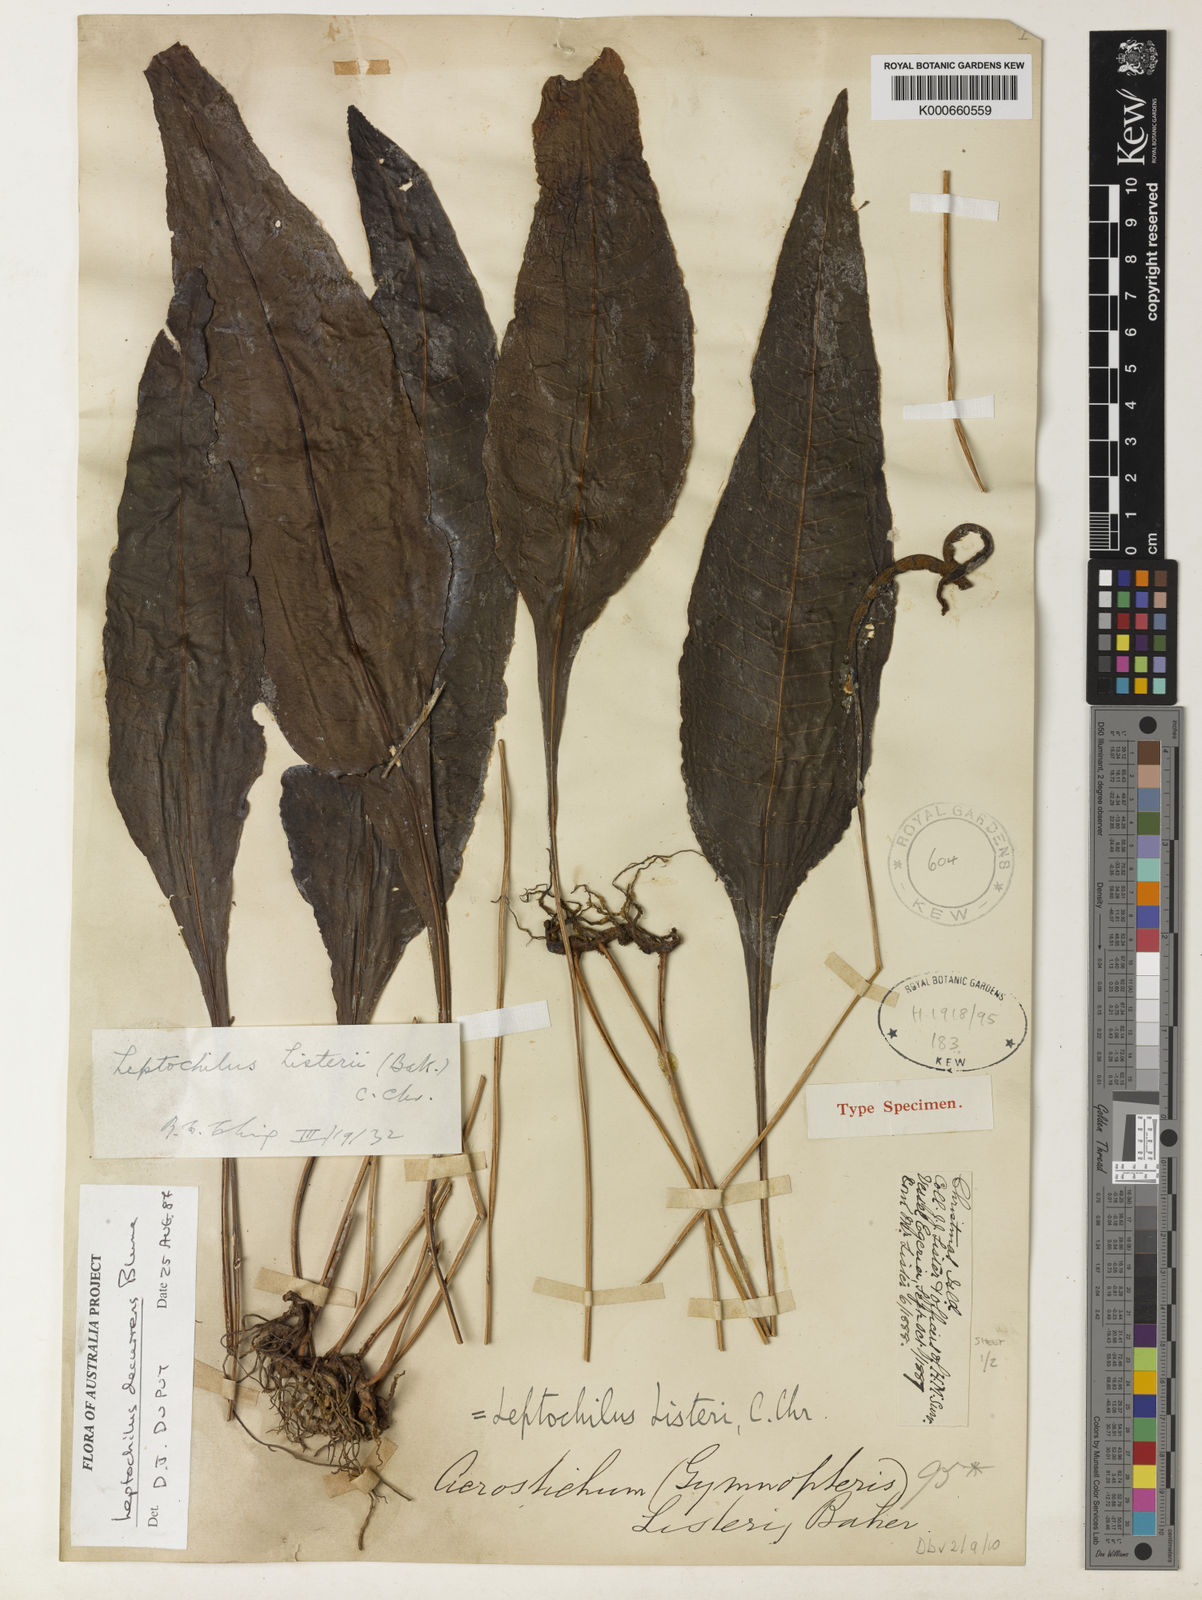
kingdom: Plantae
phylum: Tracheophyta
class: Polypodiopsida
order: Polypodiales
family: Polypodiaceae
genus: Leptochilus
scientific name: Leptochilus decurrens
